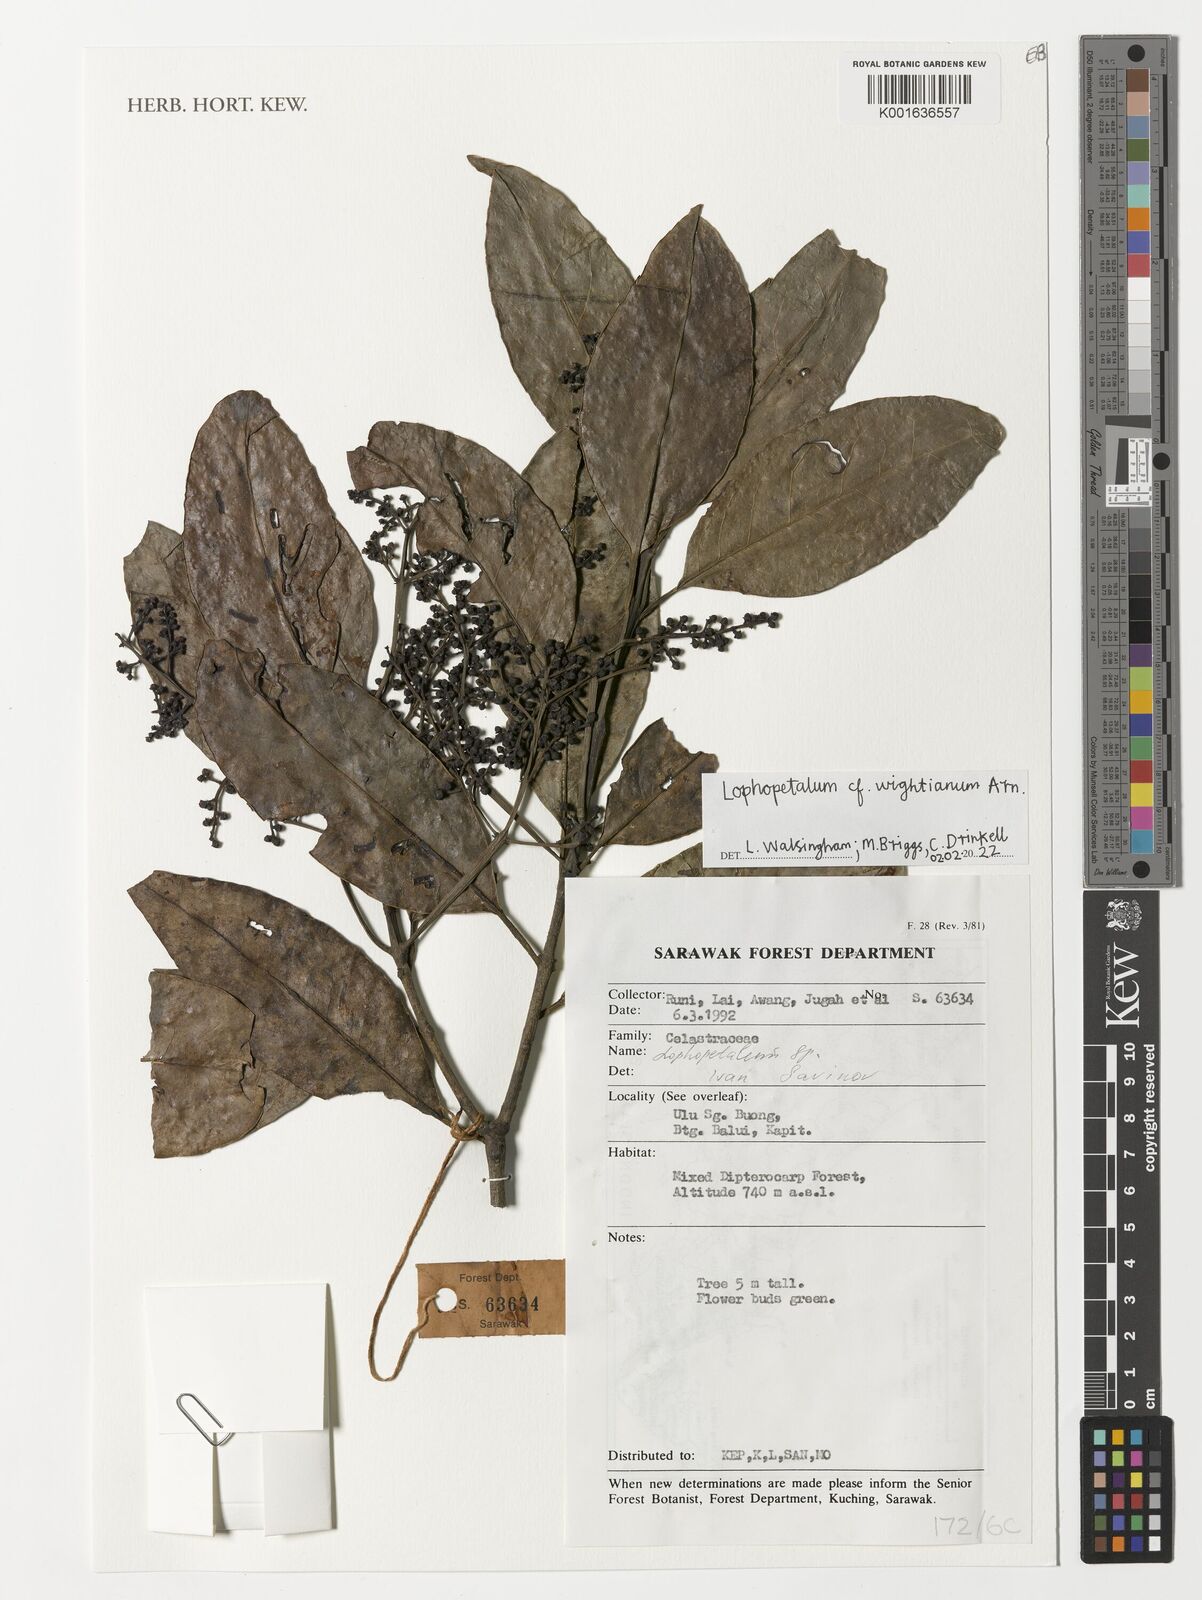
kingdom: Plantae
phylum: Tracheophyta
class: Magnoliopsida
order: Celastrales
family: Celastraceae
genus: Lophopetalum
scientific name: Lophopetalum wightianum
